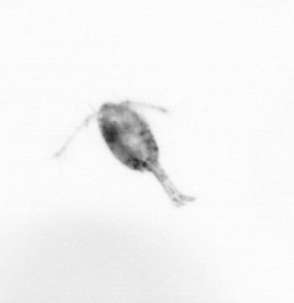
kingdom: Animalia
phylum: Arthropoda
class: Copepoda
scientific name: Copepoda
